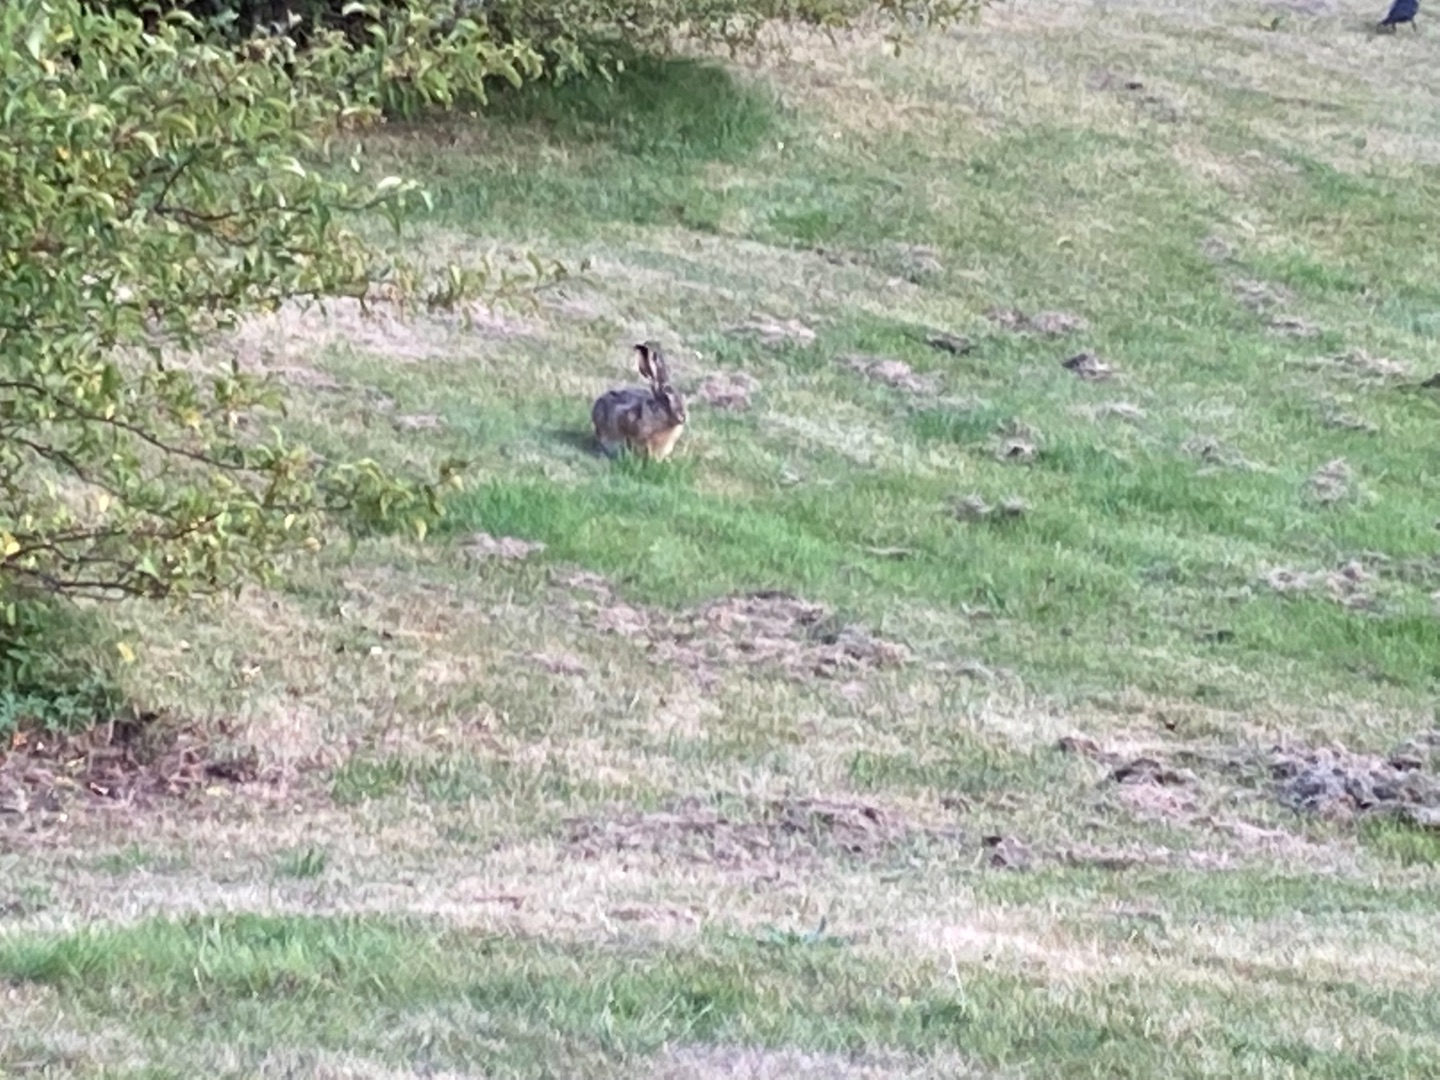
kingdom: Animalia
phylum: Chordata
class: Mammalia
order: Lagomorpha
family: Leporidae
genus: Lepus
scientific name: Lepus europaeus
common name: Hare
